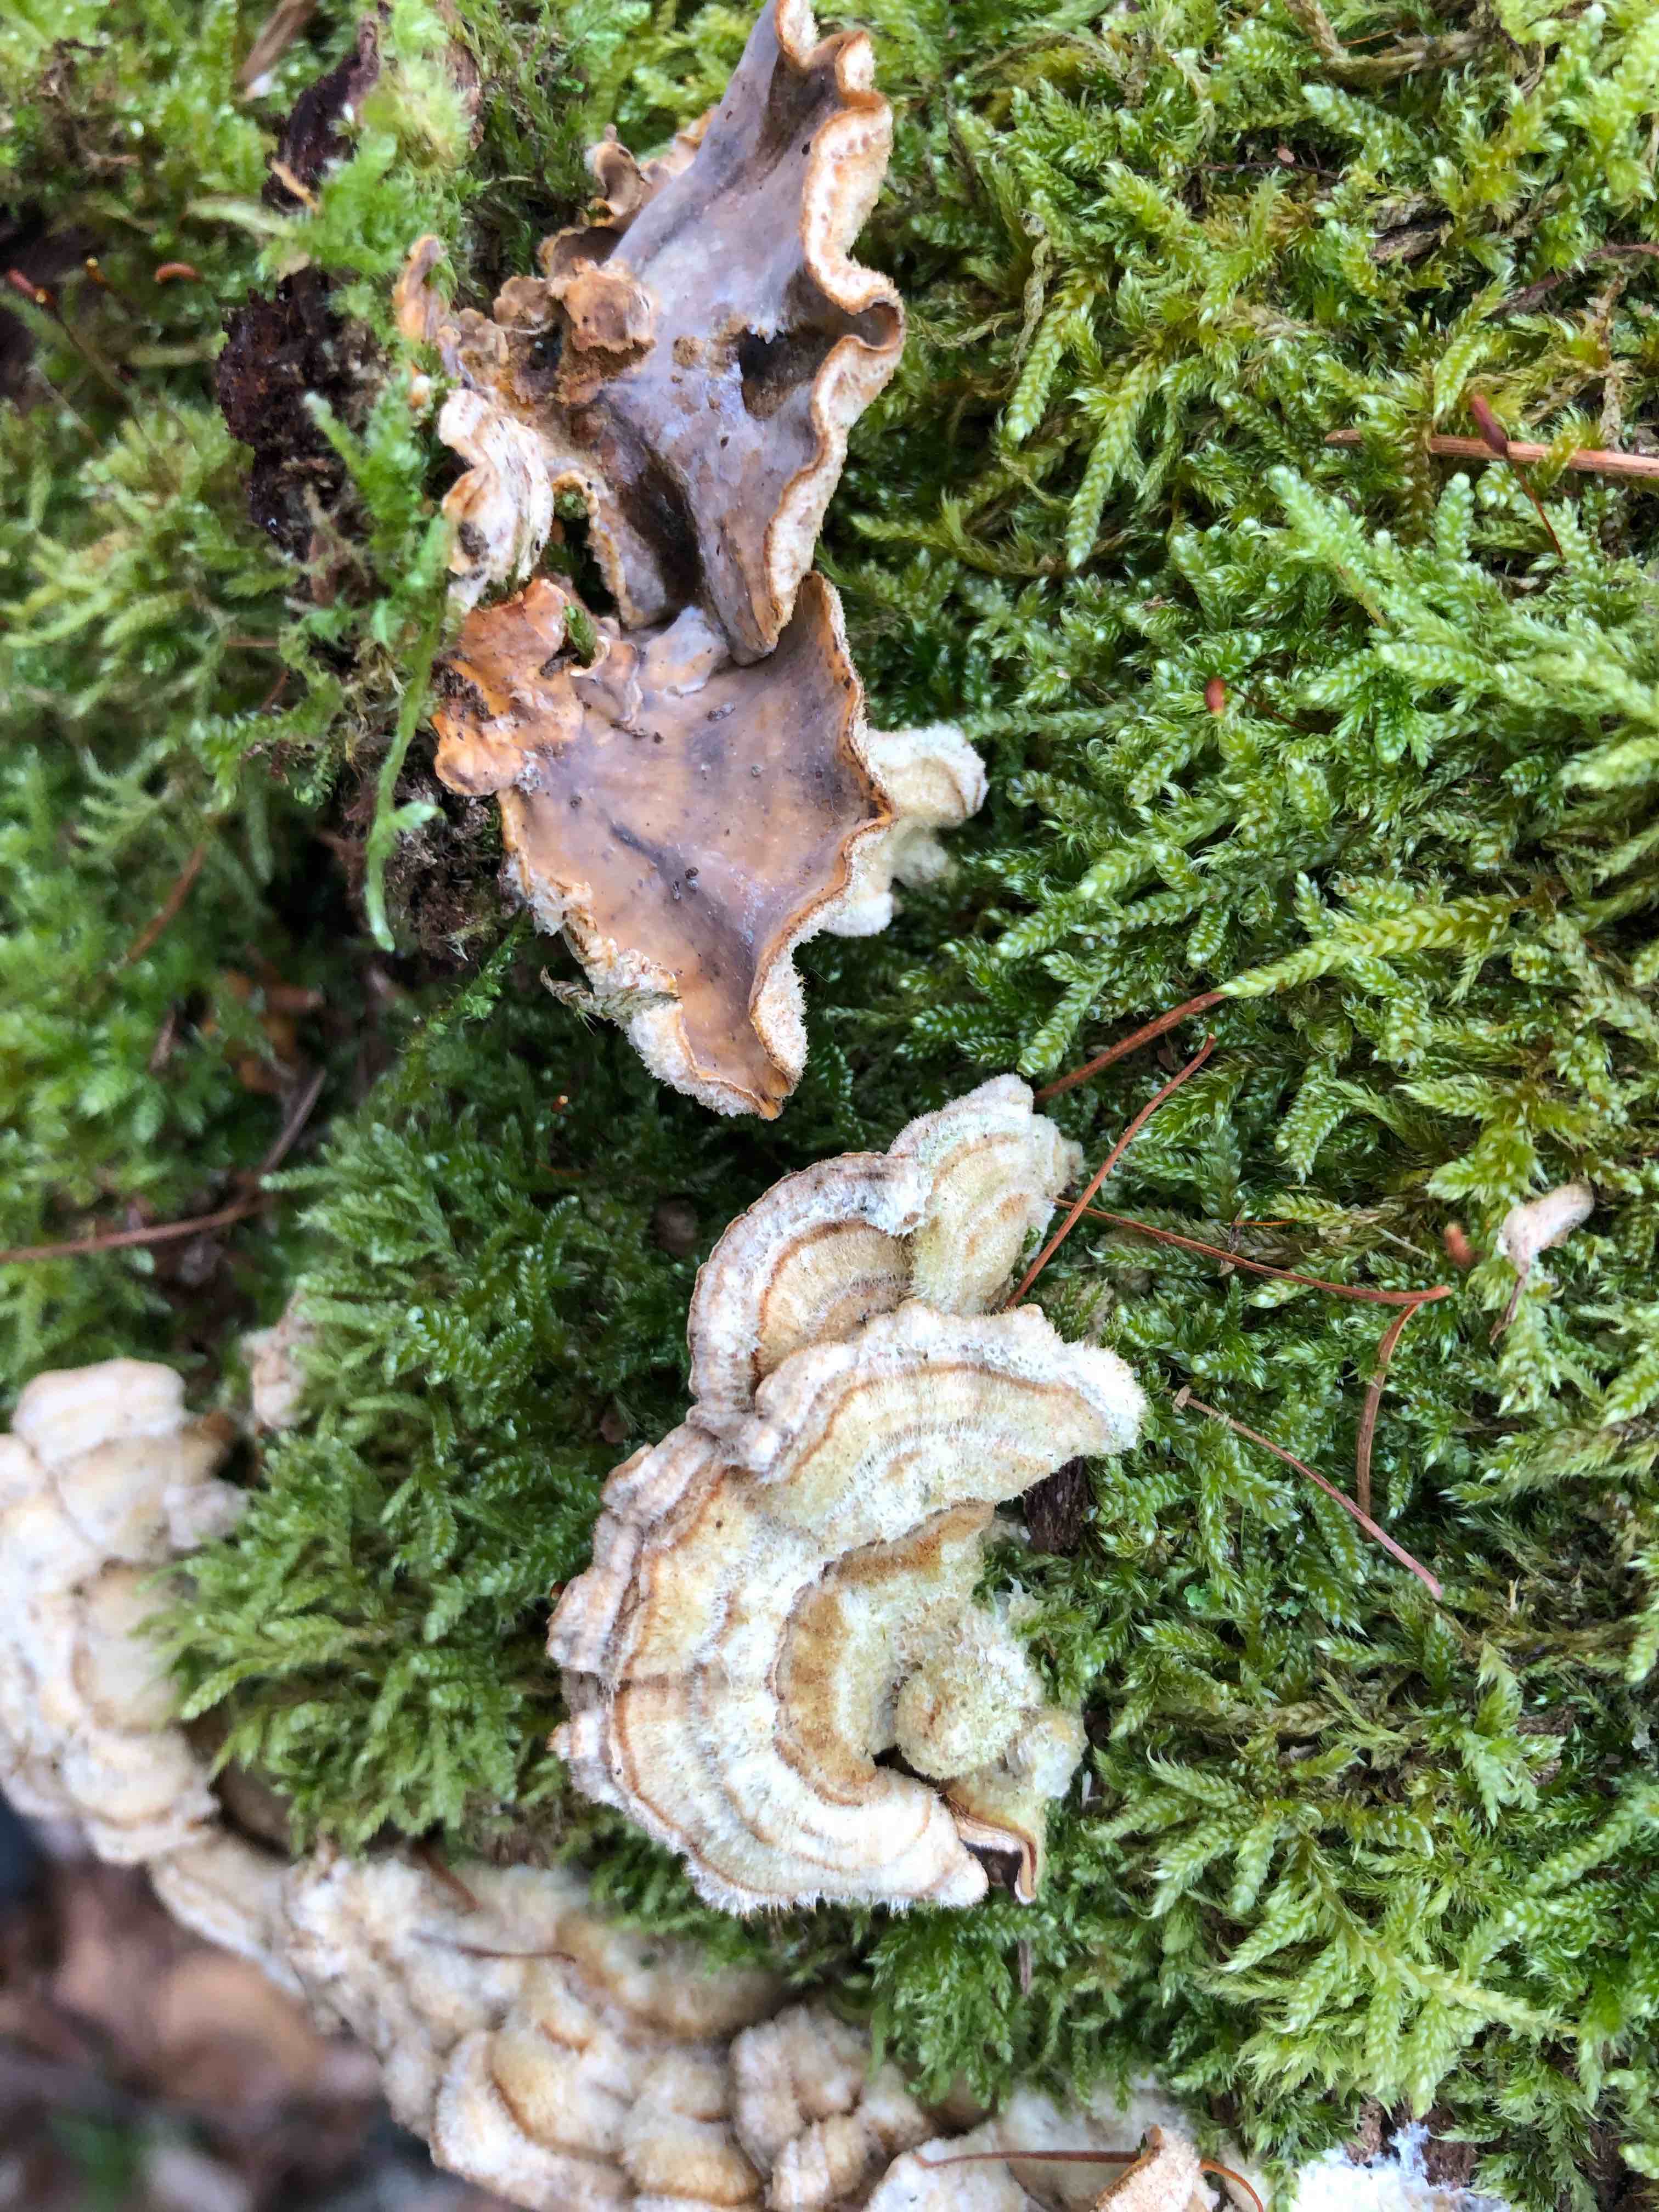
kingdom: Fungi
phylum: Basidiomycota
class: Agaricomycetes
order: Russulales
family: Stereaceae
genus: Stereum
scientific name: Stereum hirsutum
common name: håret lædersvamp
